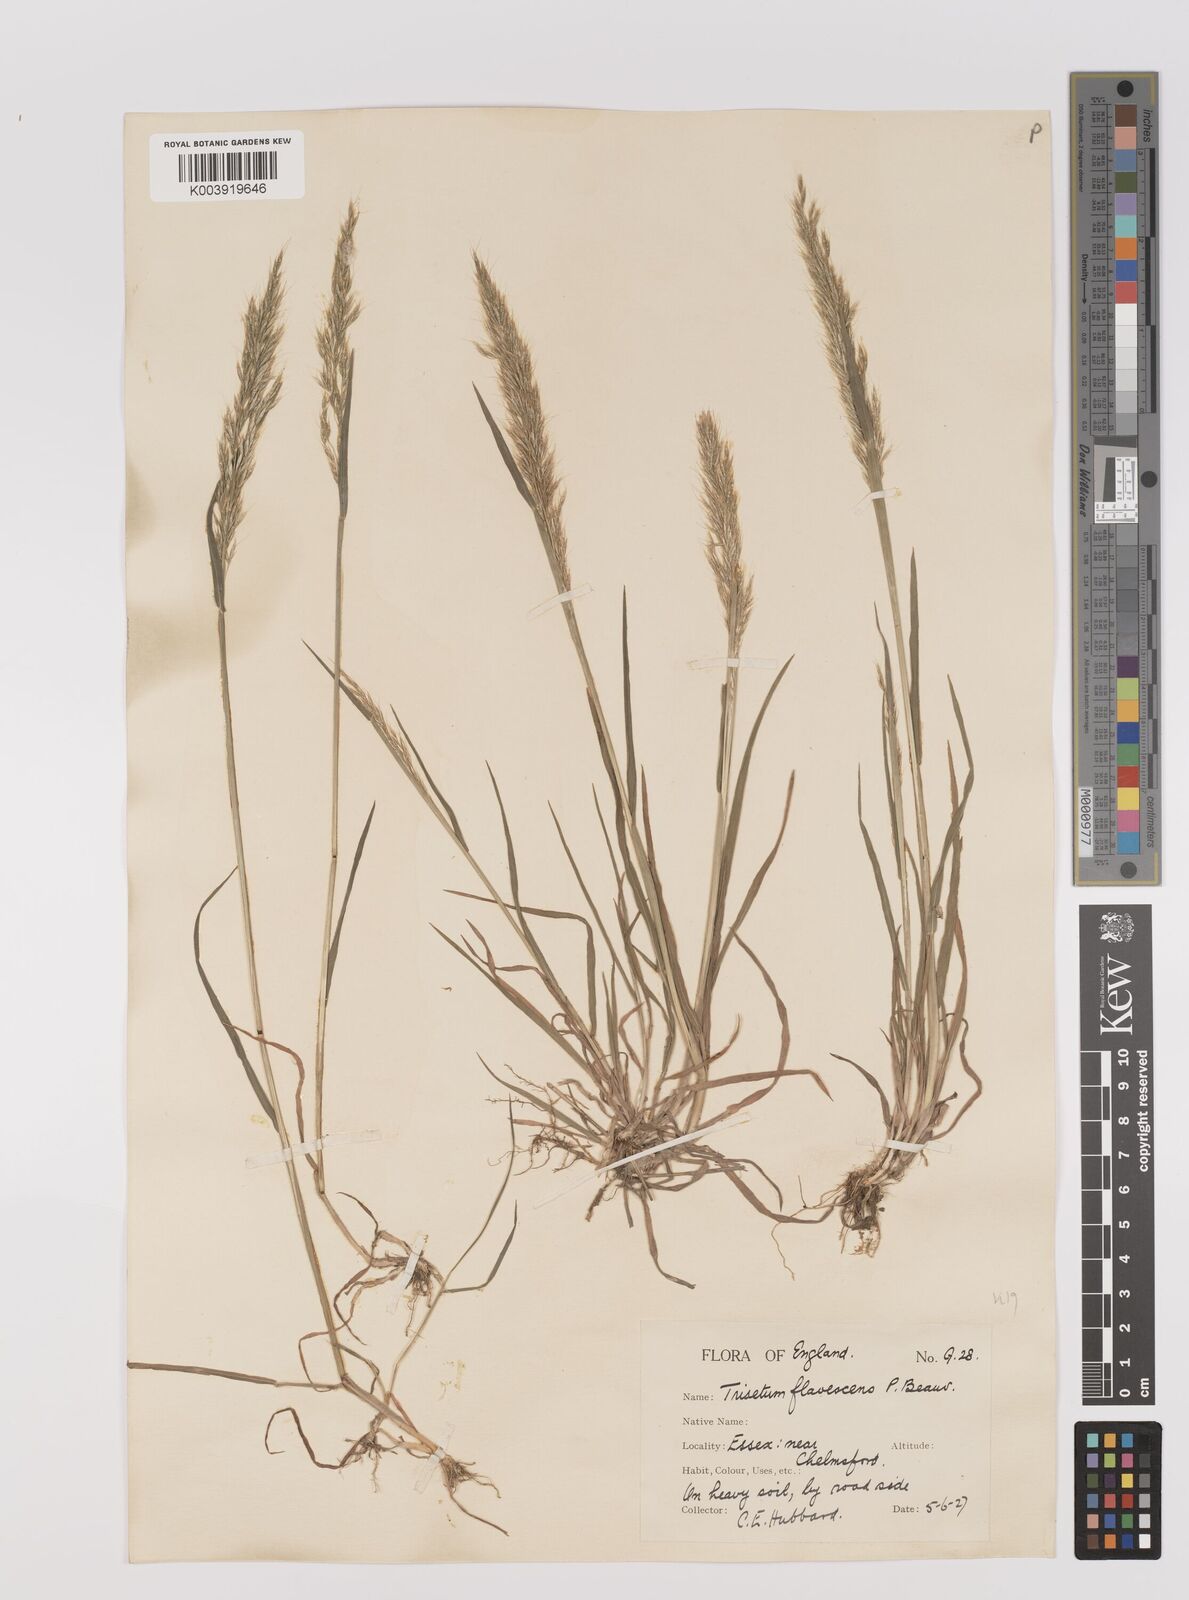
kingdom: Plantae
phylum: Tracheophyta
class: Liliopsida
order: Poales
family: Poaceae
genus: Trisetum
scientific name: Trisetum flavescens
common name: Yellow oat-grass
